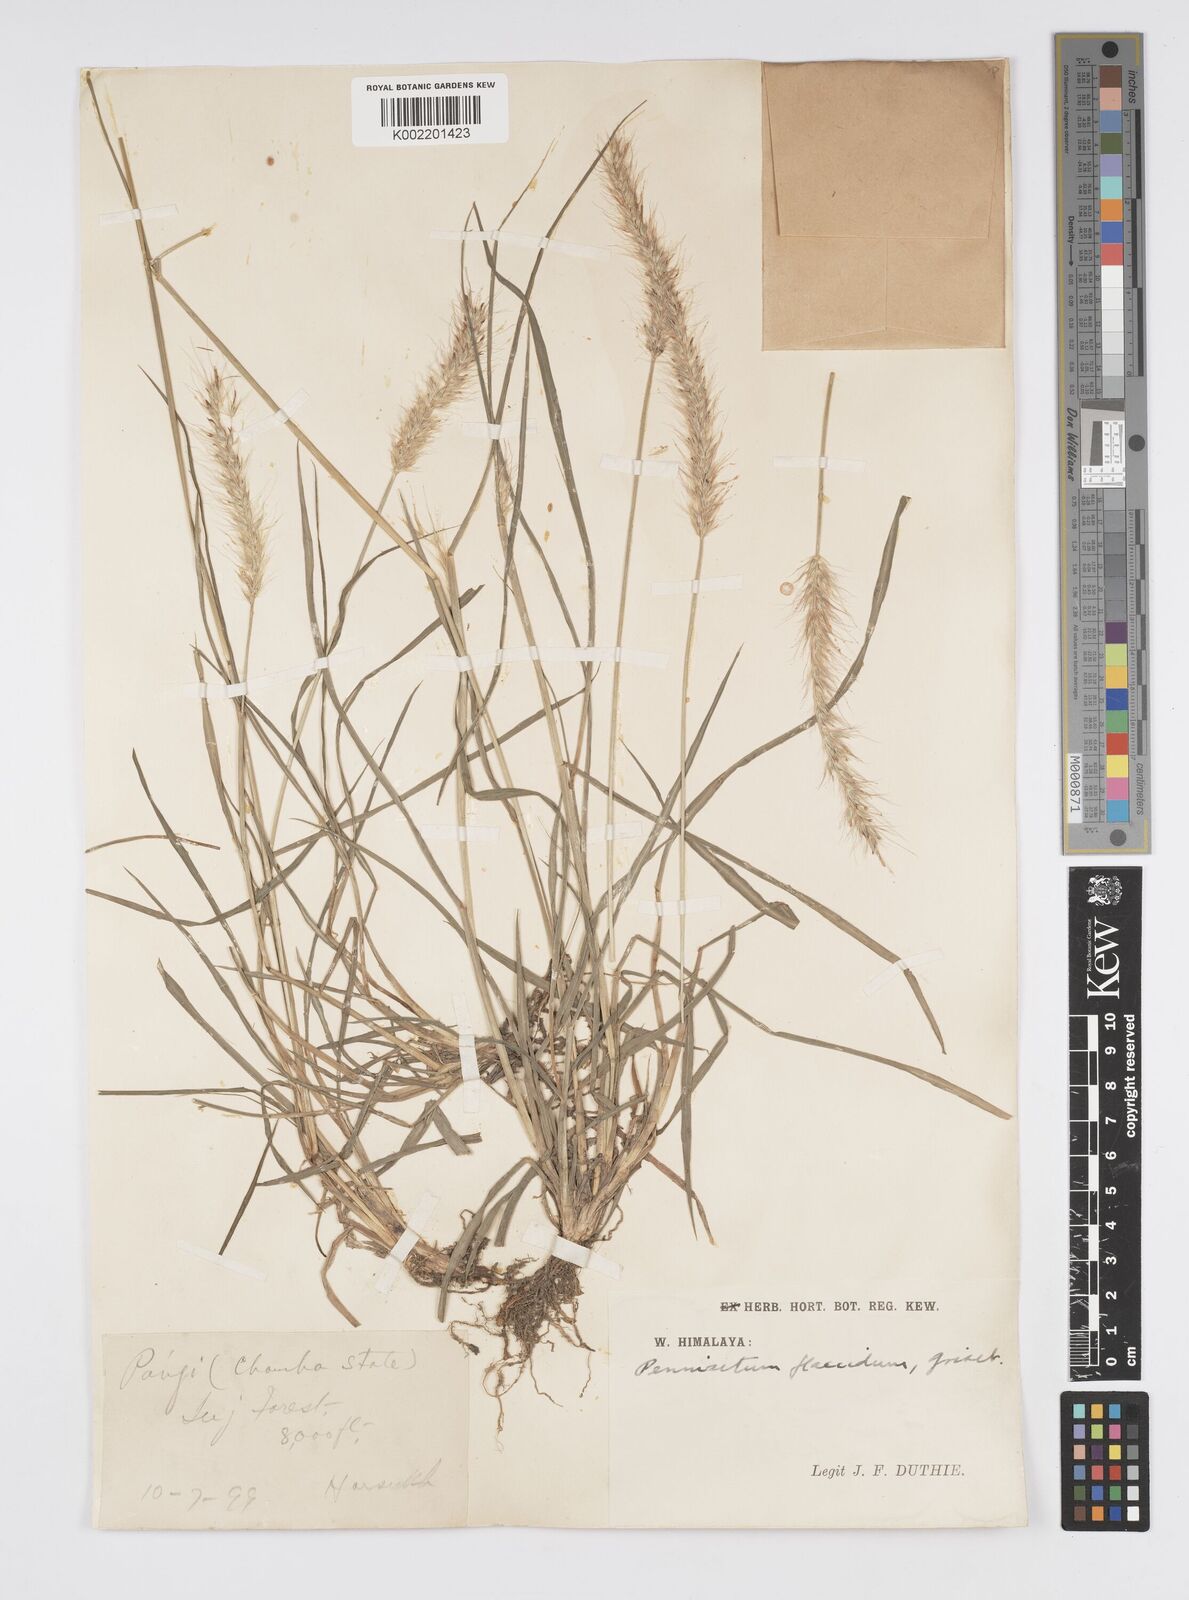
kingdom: Plantae
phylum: Tracheophyta
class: Liliopsida
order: Poales
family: Poaceae
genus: Cenchrus
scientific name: Cenchrus flaccidus
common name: Flaccid grass
